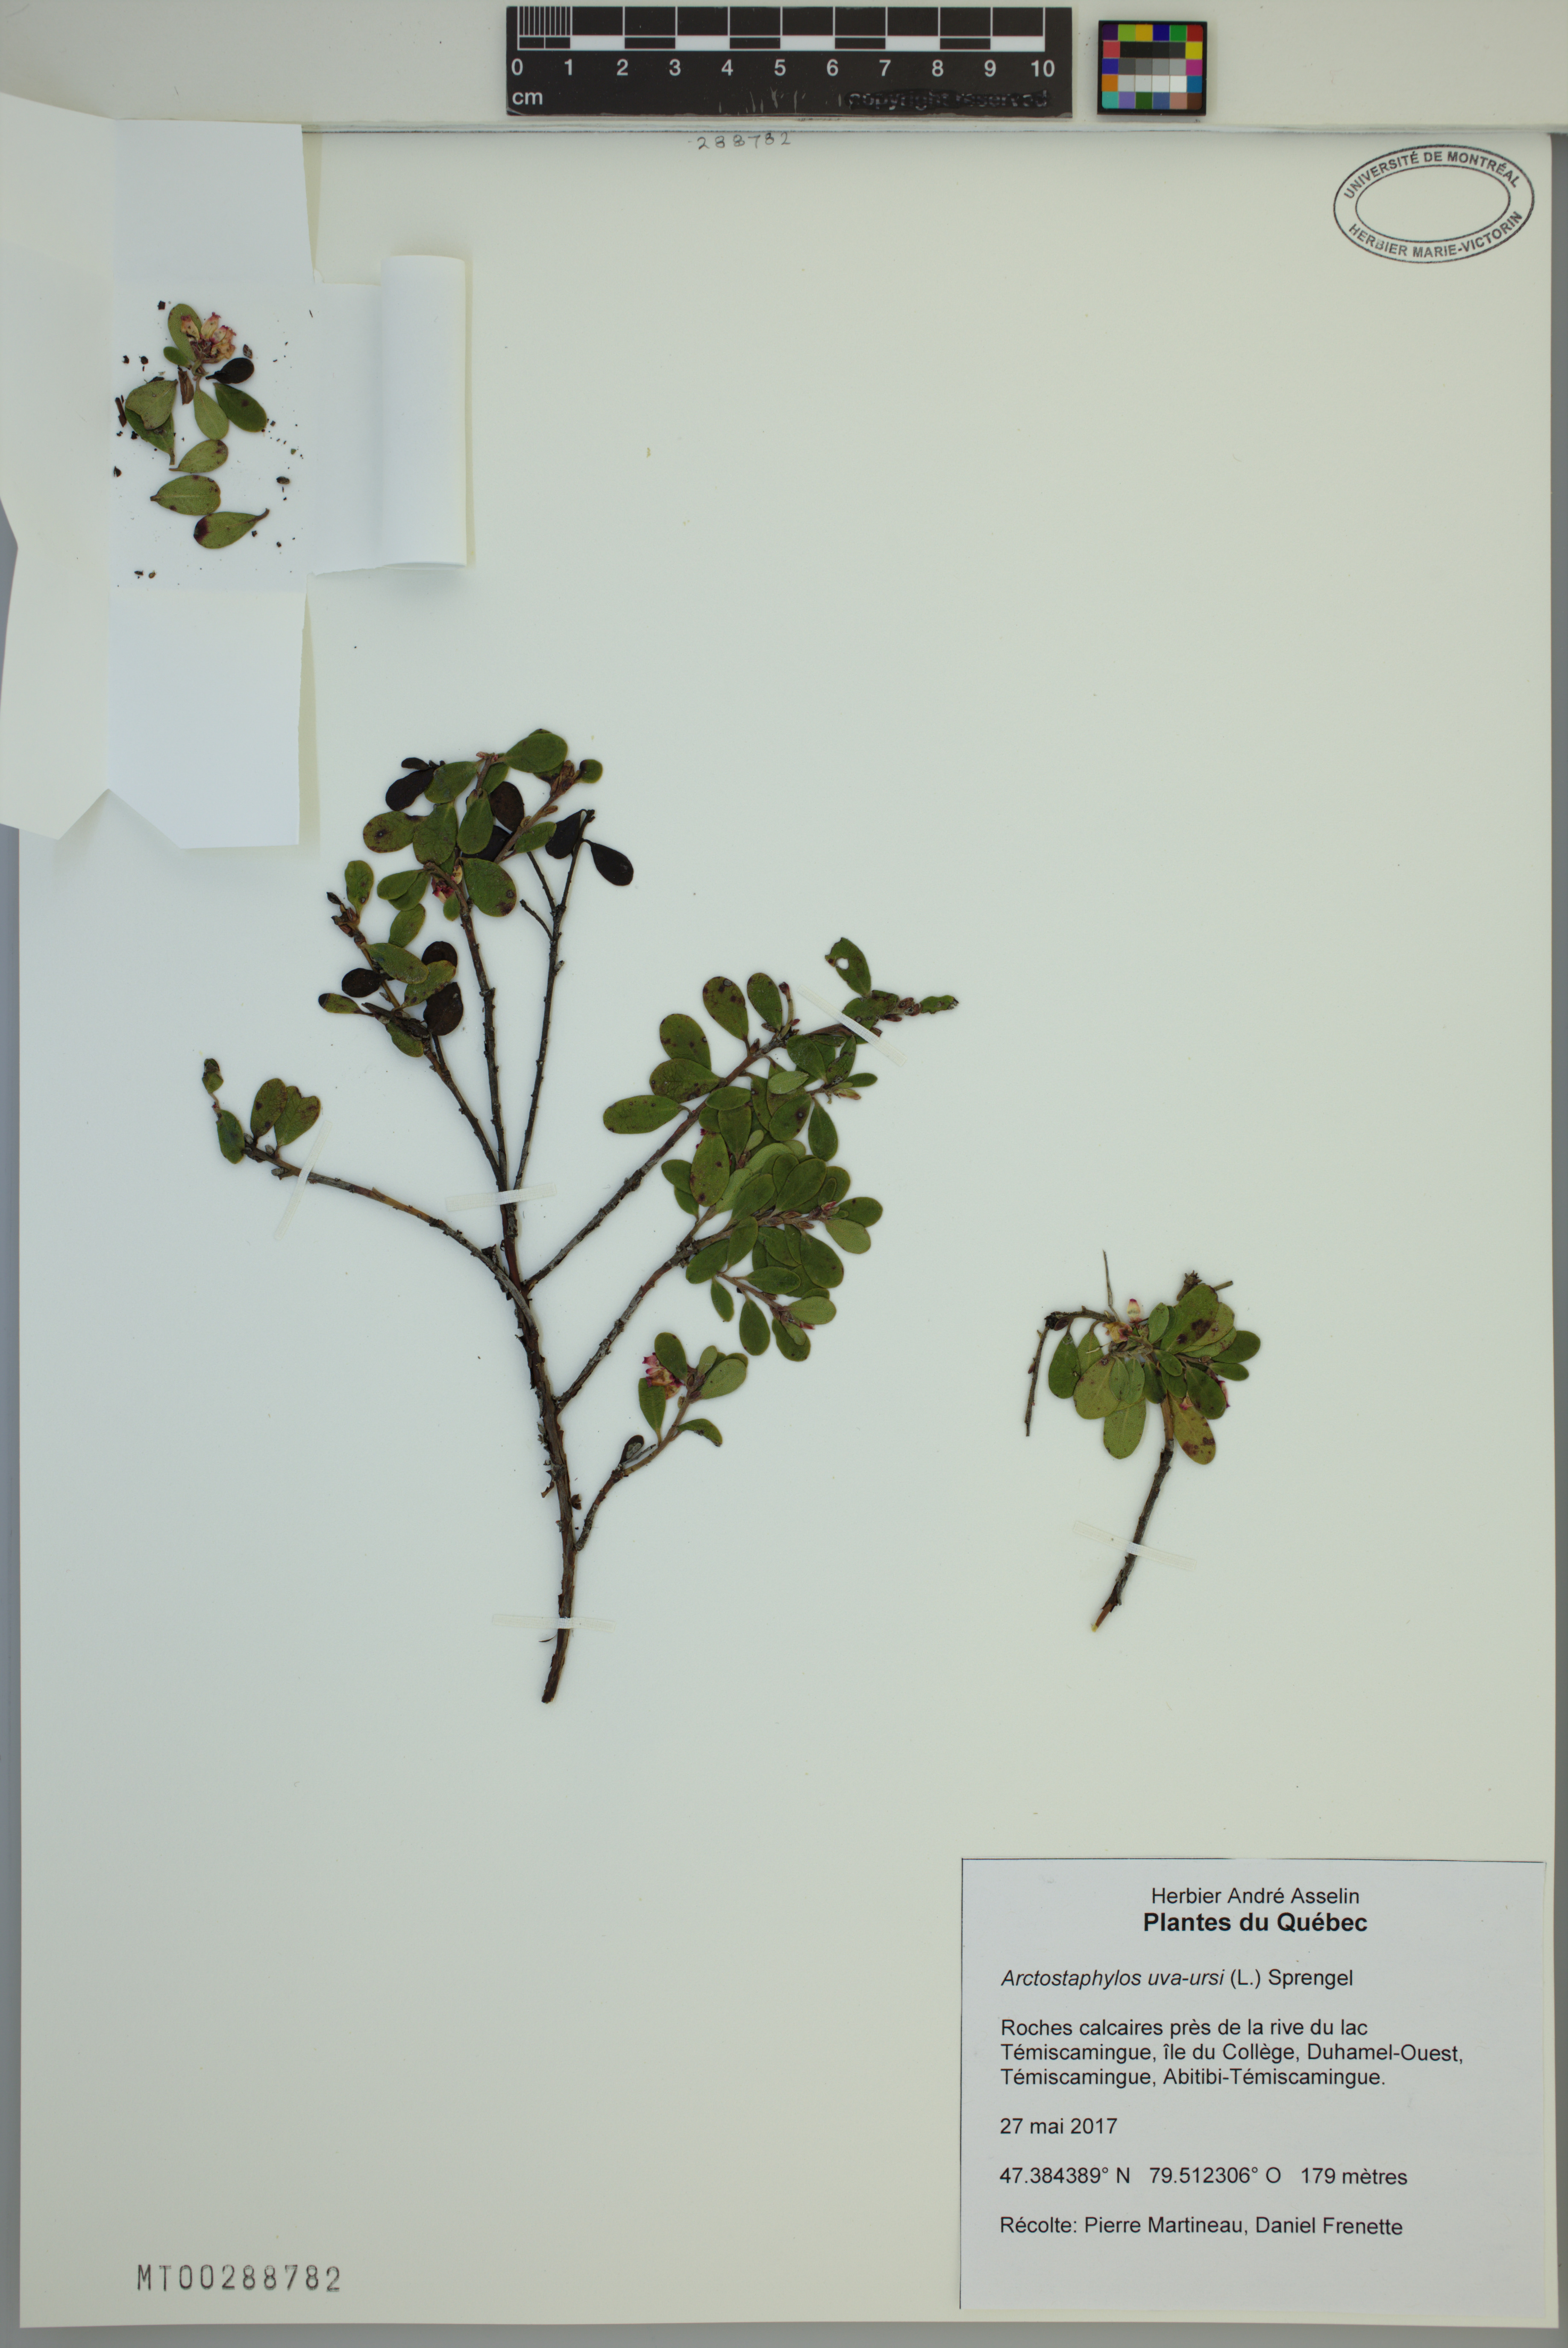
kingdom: Plantae
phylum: Tracheophyta
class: Magnoliopsida
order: Ericales
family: Ericaceae
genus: Arctostaphylos
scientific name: Arctostaphylos uva-ursi
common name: Bearberry
